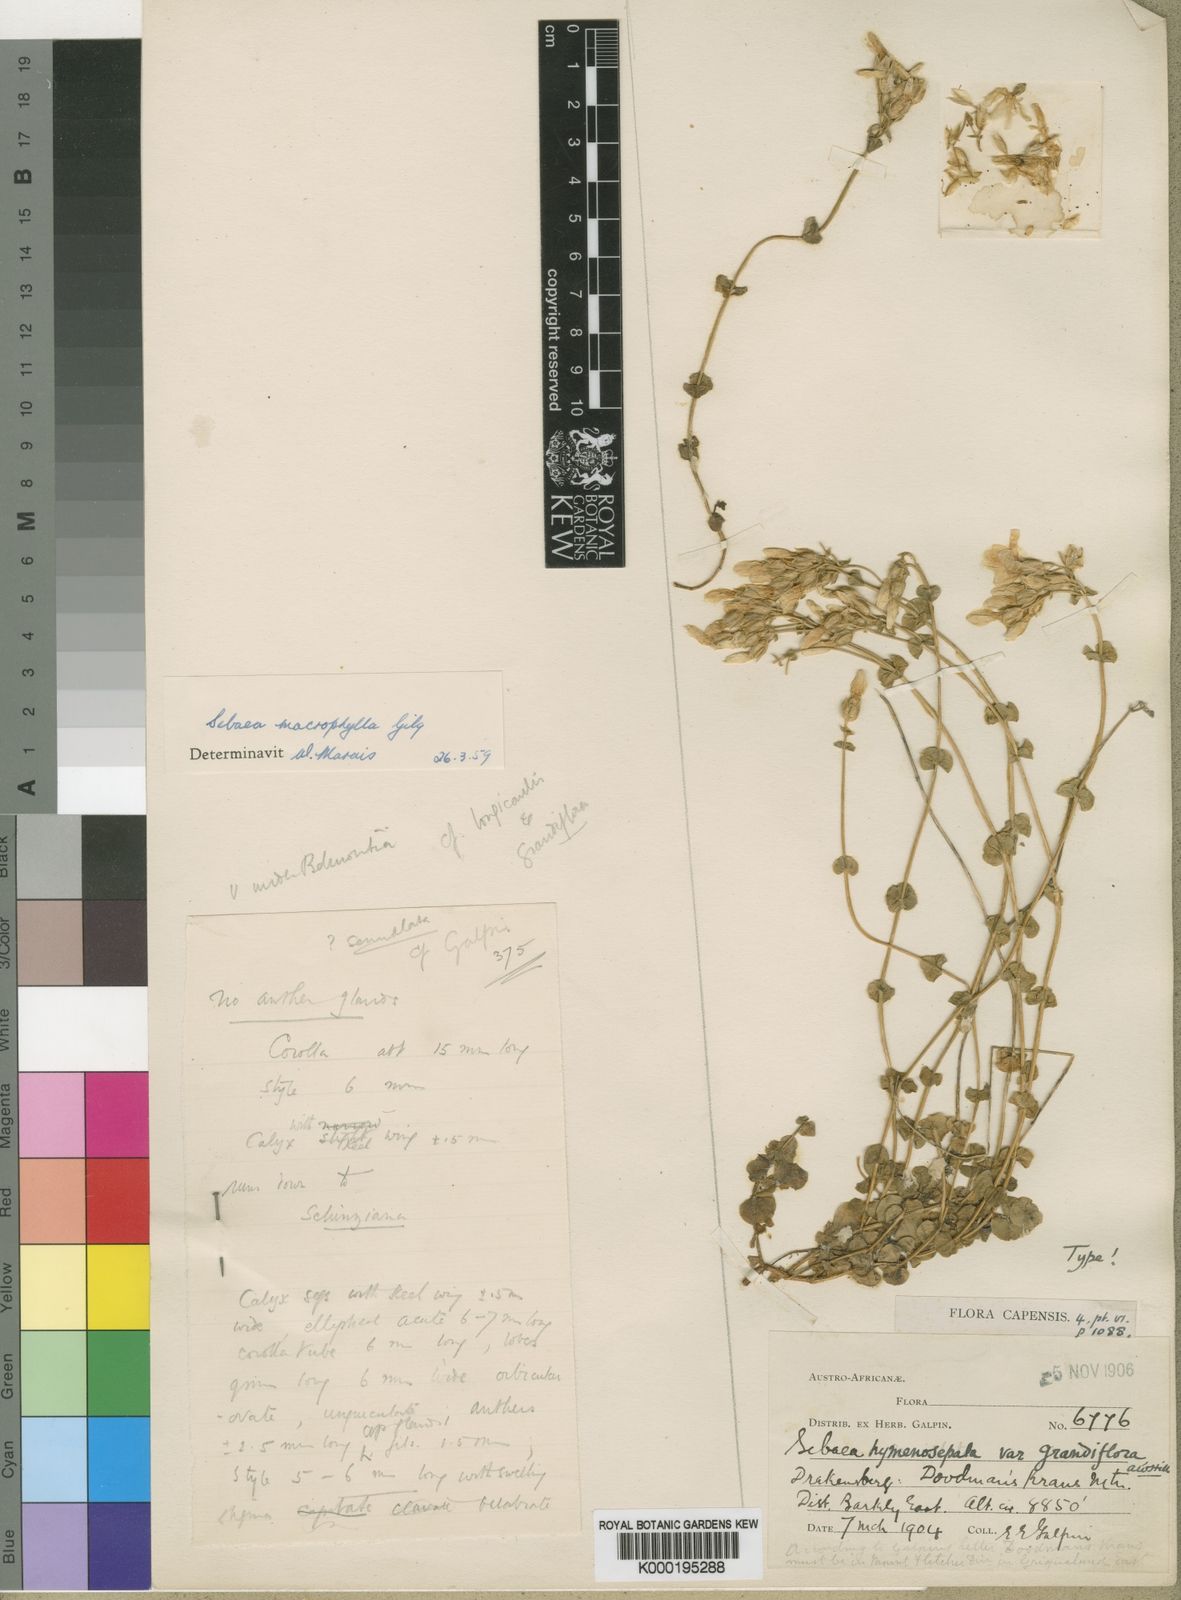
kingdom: Plantae
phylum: Tracheophyta
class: Magnoliopsida
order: Gentianales
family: Gentianaceae
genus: Sebaea
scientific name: Sebaea macrophylla
